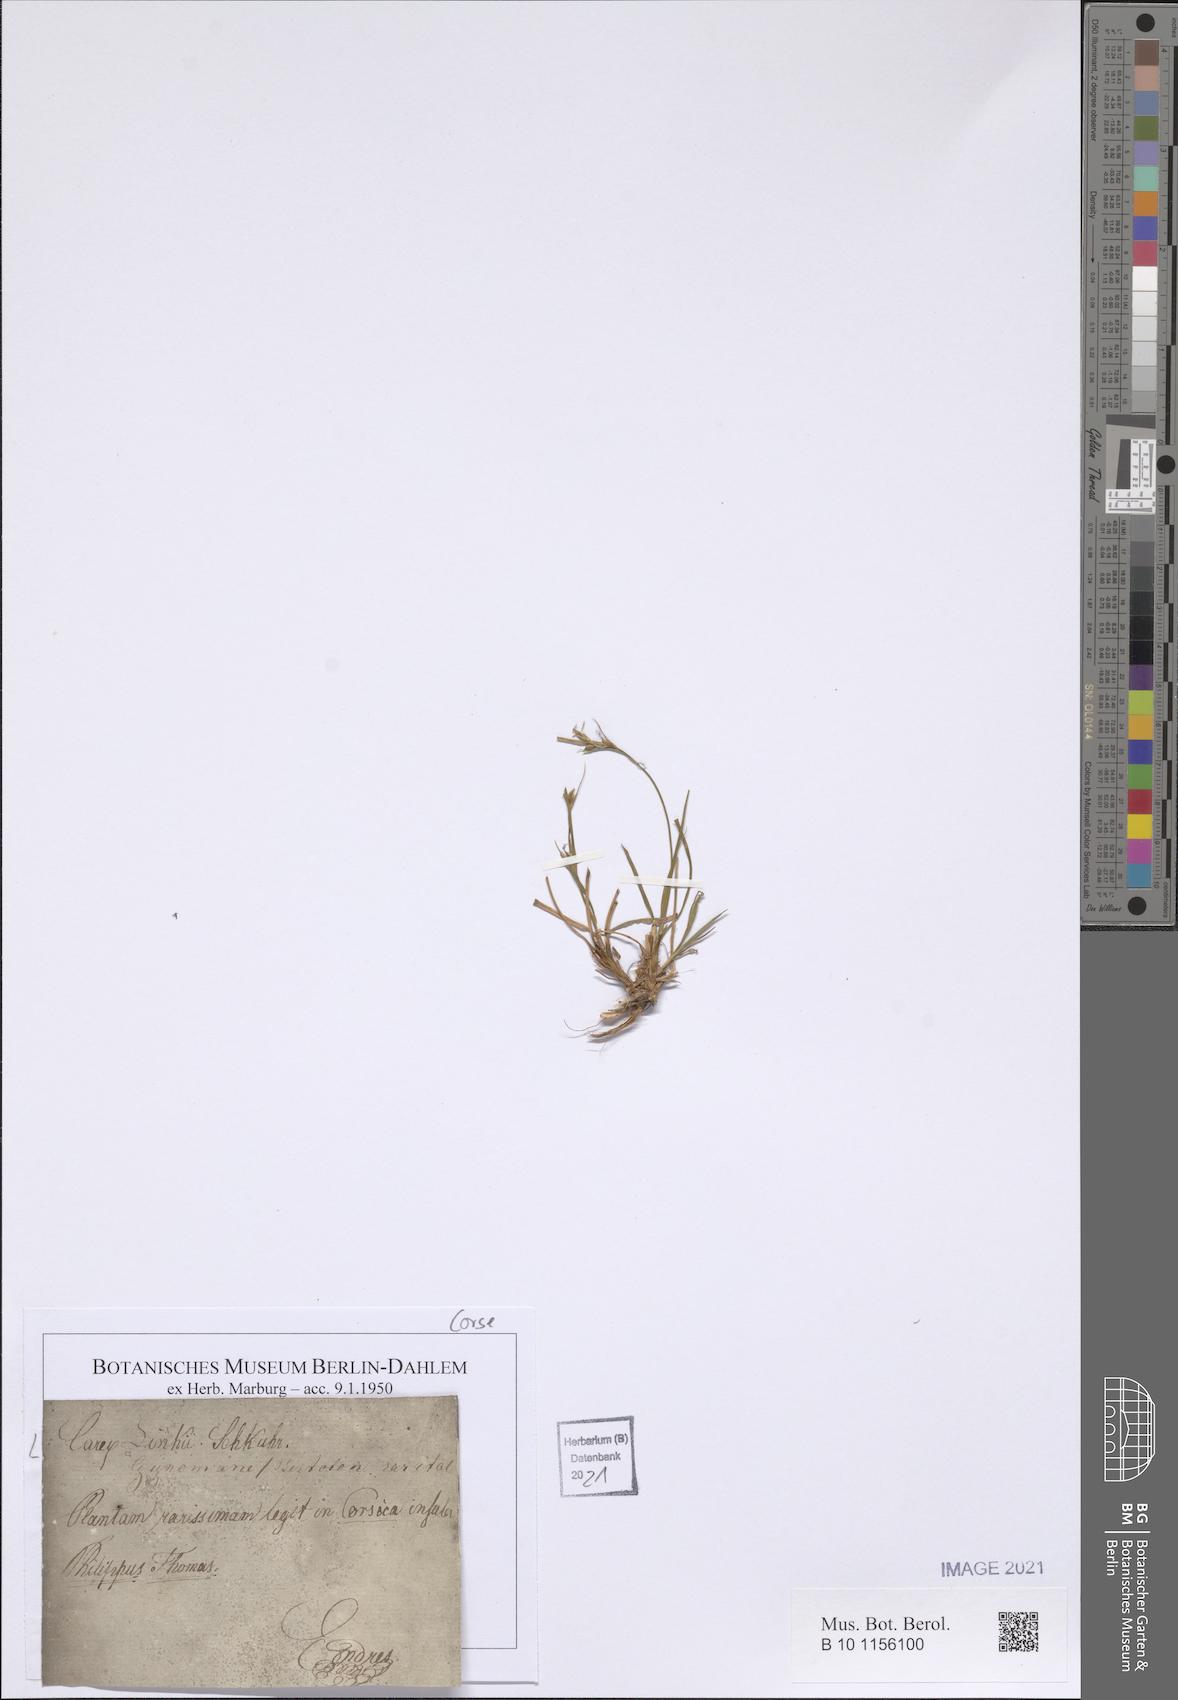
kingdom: Plantae
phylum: Tracheophyta
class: Liliopsida
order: Poales
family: Cyperaceae
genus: Carex
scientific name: Carex distachya
